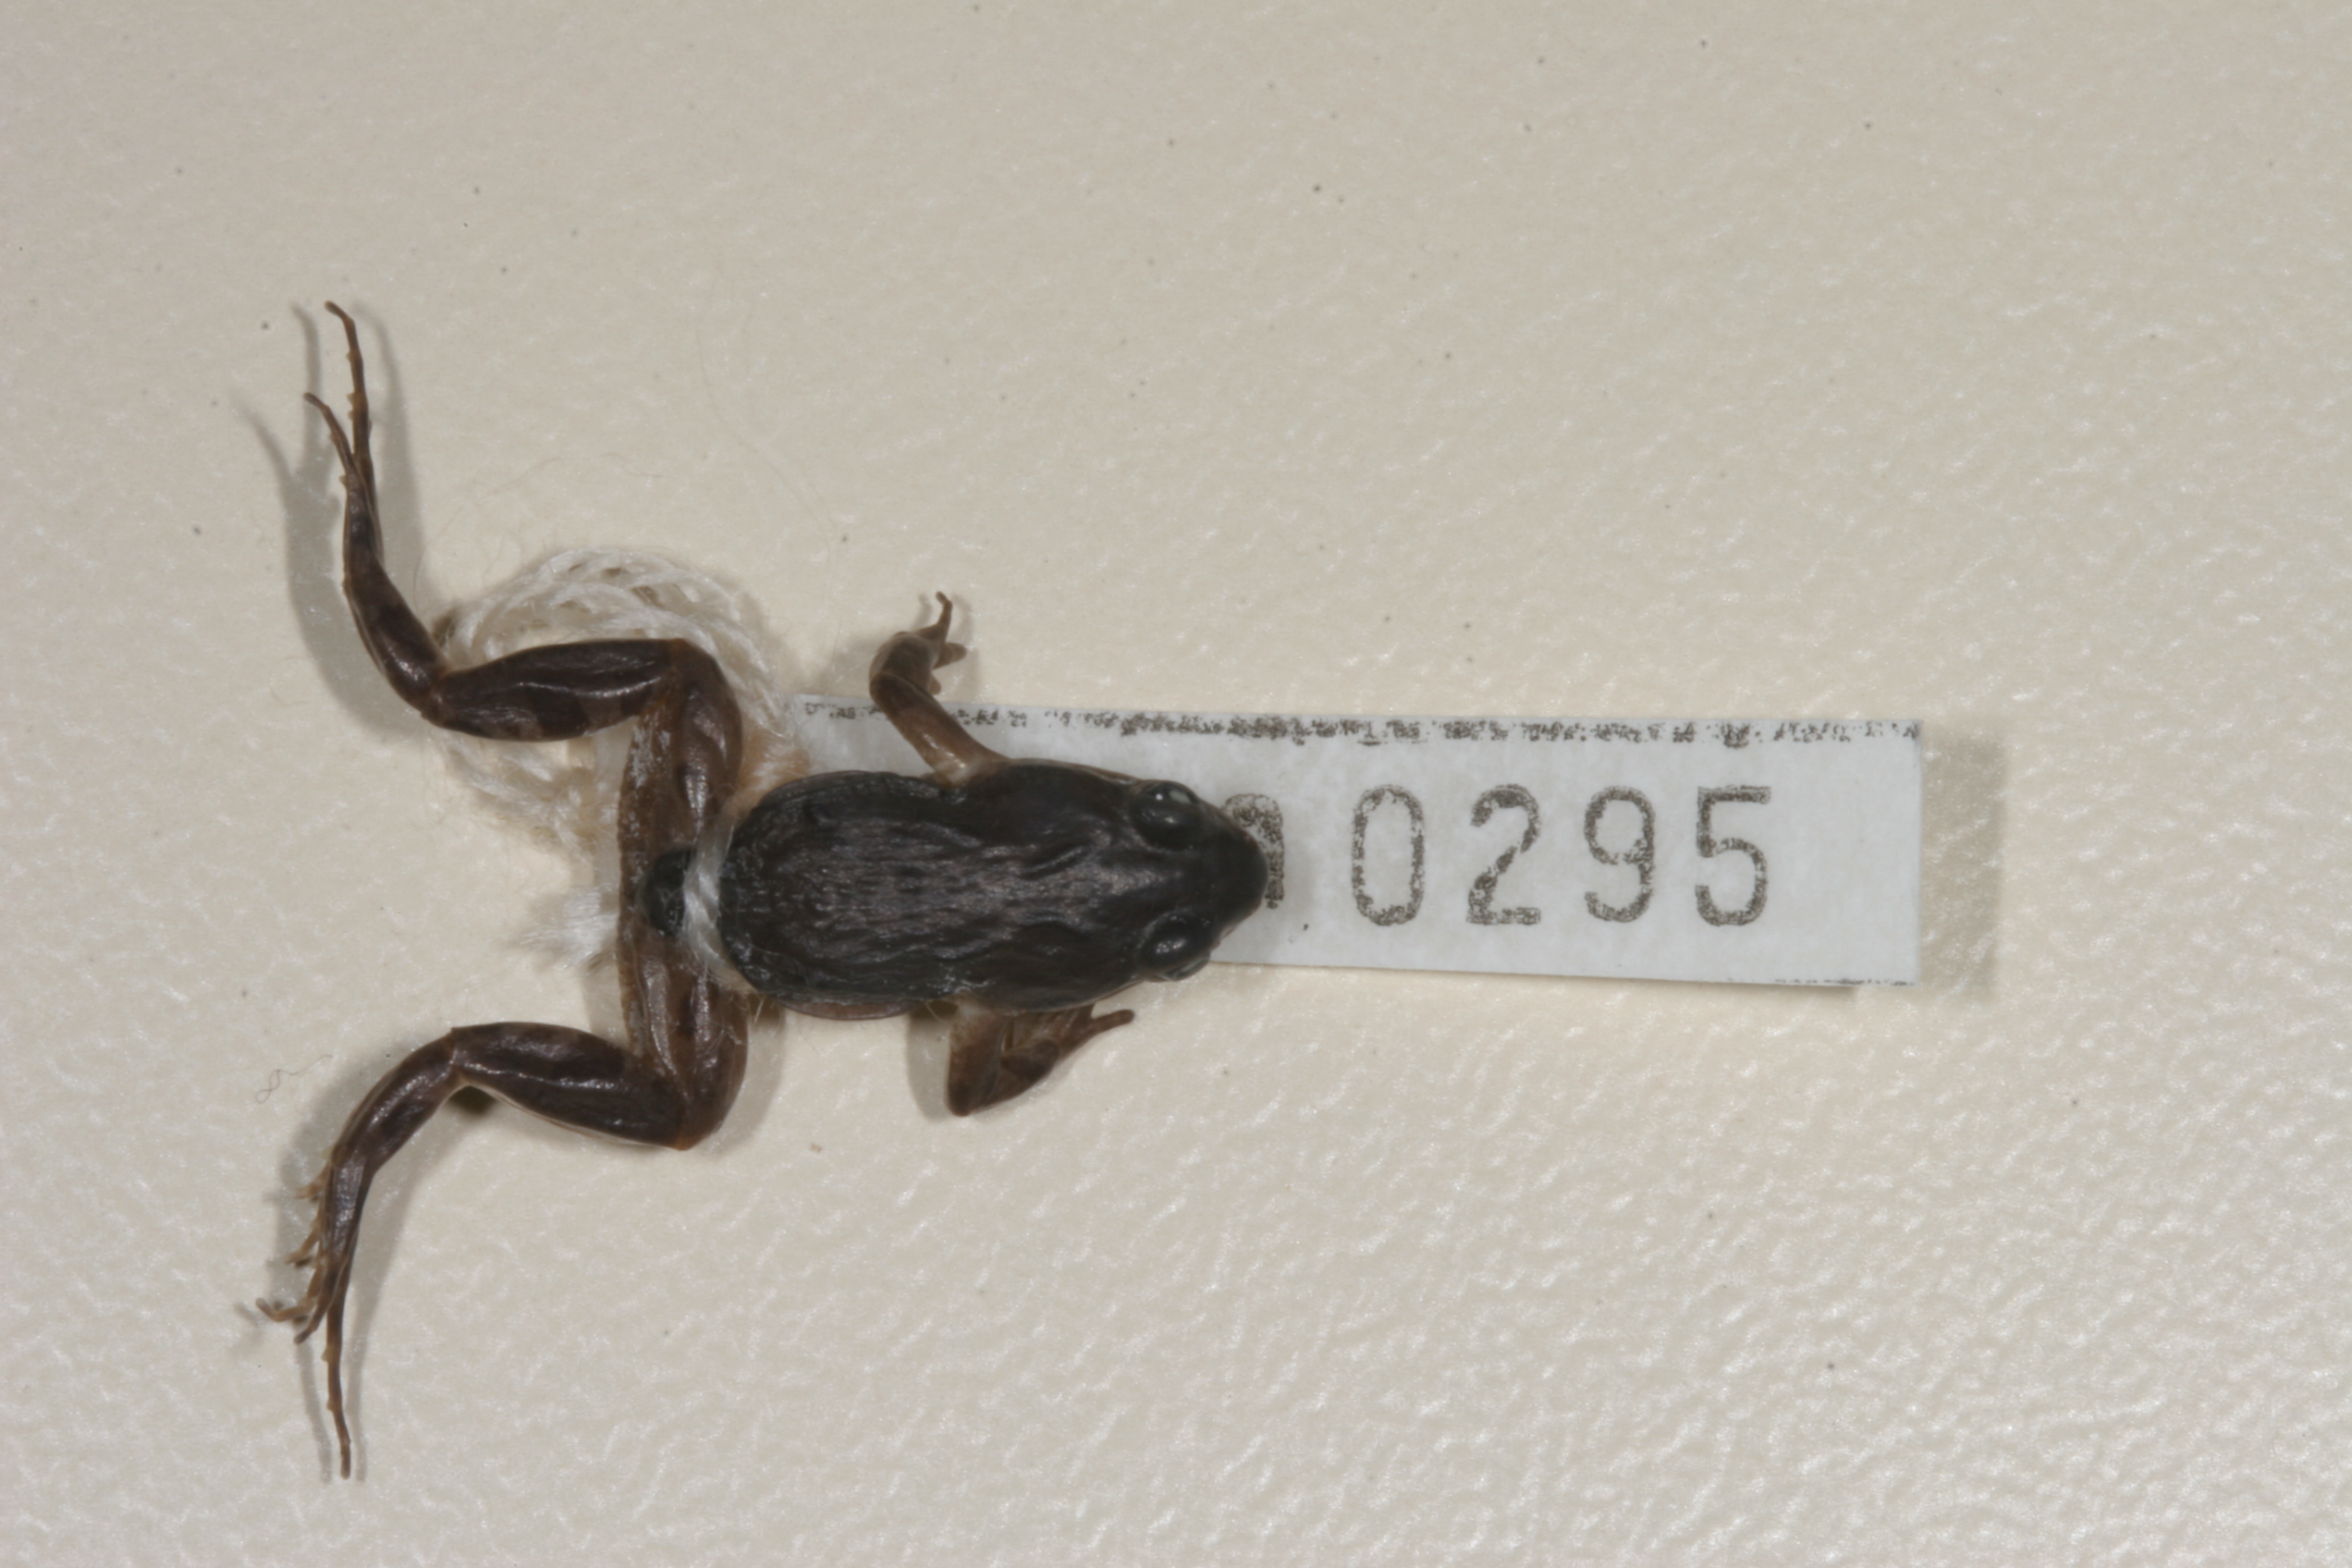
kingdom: Animalia
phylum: Chordata
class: Amphibia
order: Anura
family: Pyxicephalidae
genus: Cacosternum
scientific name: Cacosternum boettgeri
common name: Boettger's frog
